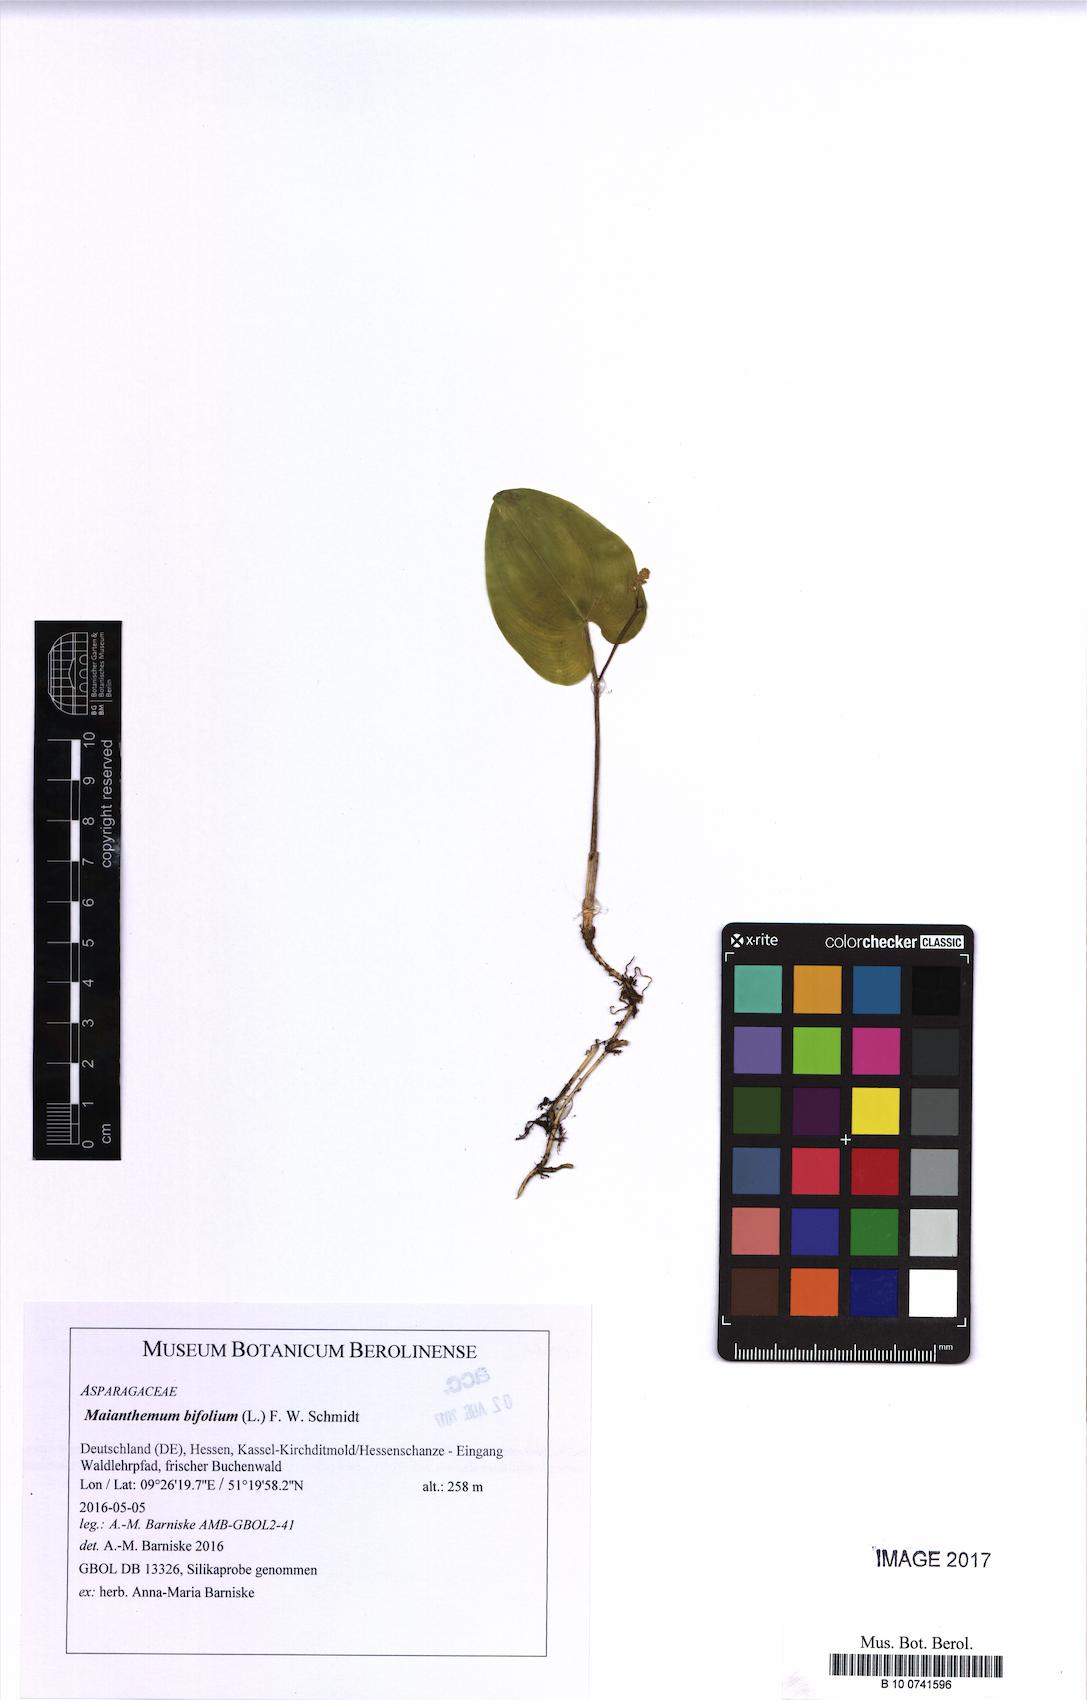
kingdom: Plantae
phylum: Tracheophyta
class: Liliopsida
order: Asparagales
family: Asparagaceae
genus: Maianthemum
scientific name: Maianthemum bifolium
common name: May lily
